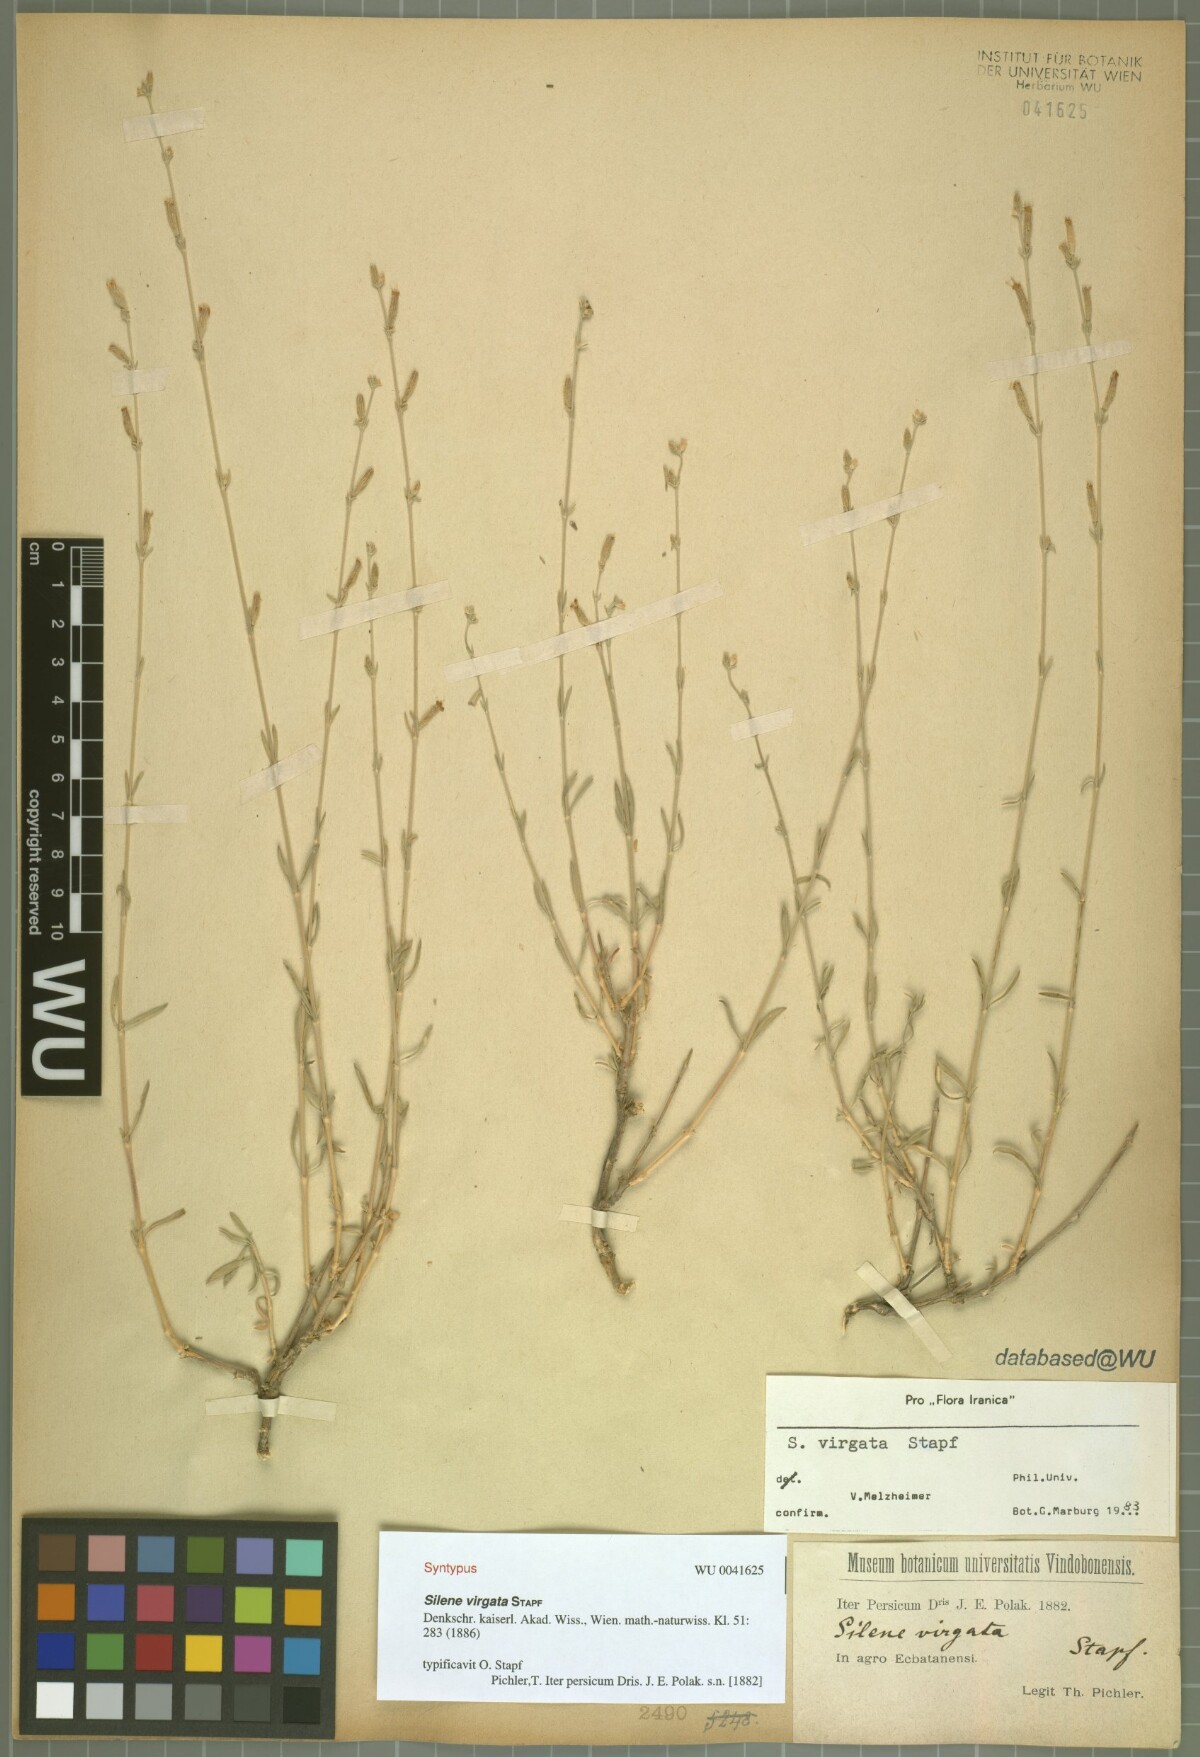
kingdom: Plantae
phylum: Tracheophyta
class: Magnoliopsida
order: Caryophyllales
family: Caryophyllaceae
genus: Silene
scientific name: Silene virgata
